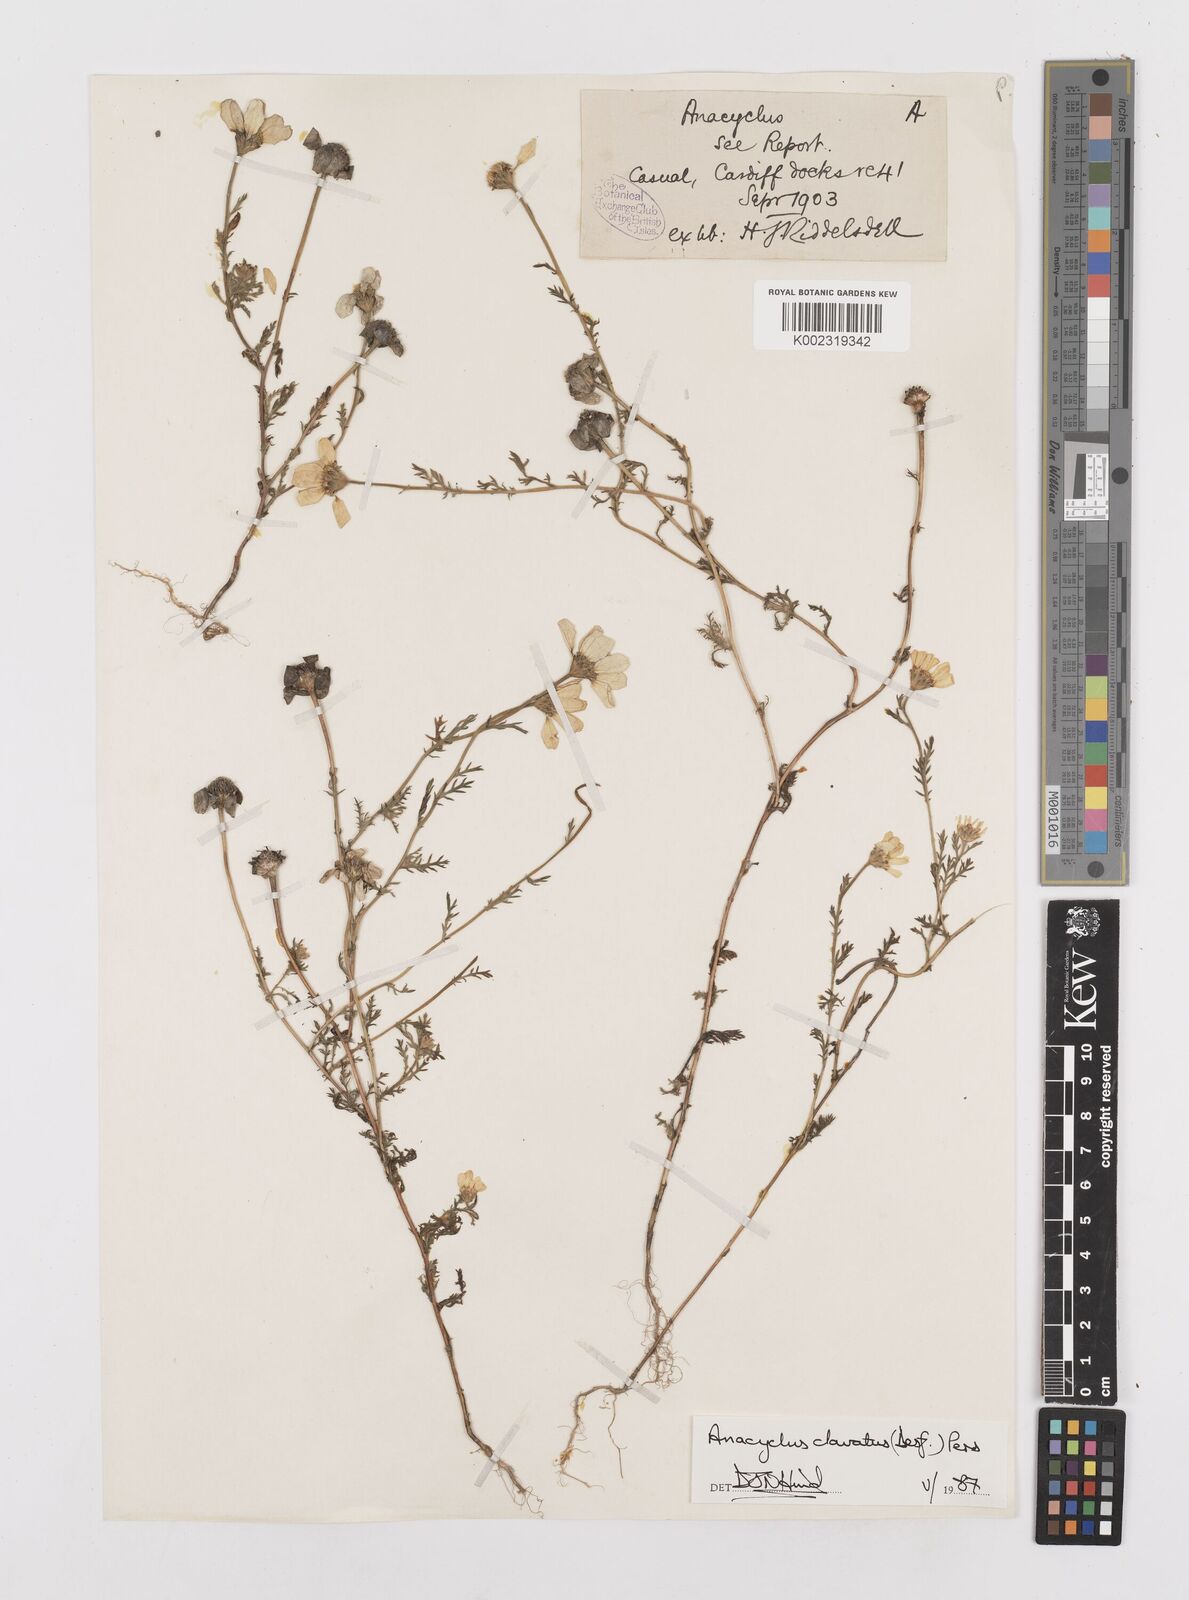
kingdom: Plantae
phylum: Tracheophyta
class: Magnoliopsida
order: Asterales
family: Asteraceae
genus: Anacyclus
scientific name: Anacyclus clavatus
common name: Whitebuttons
